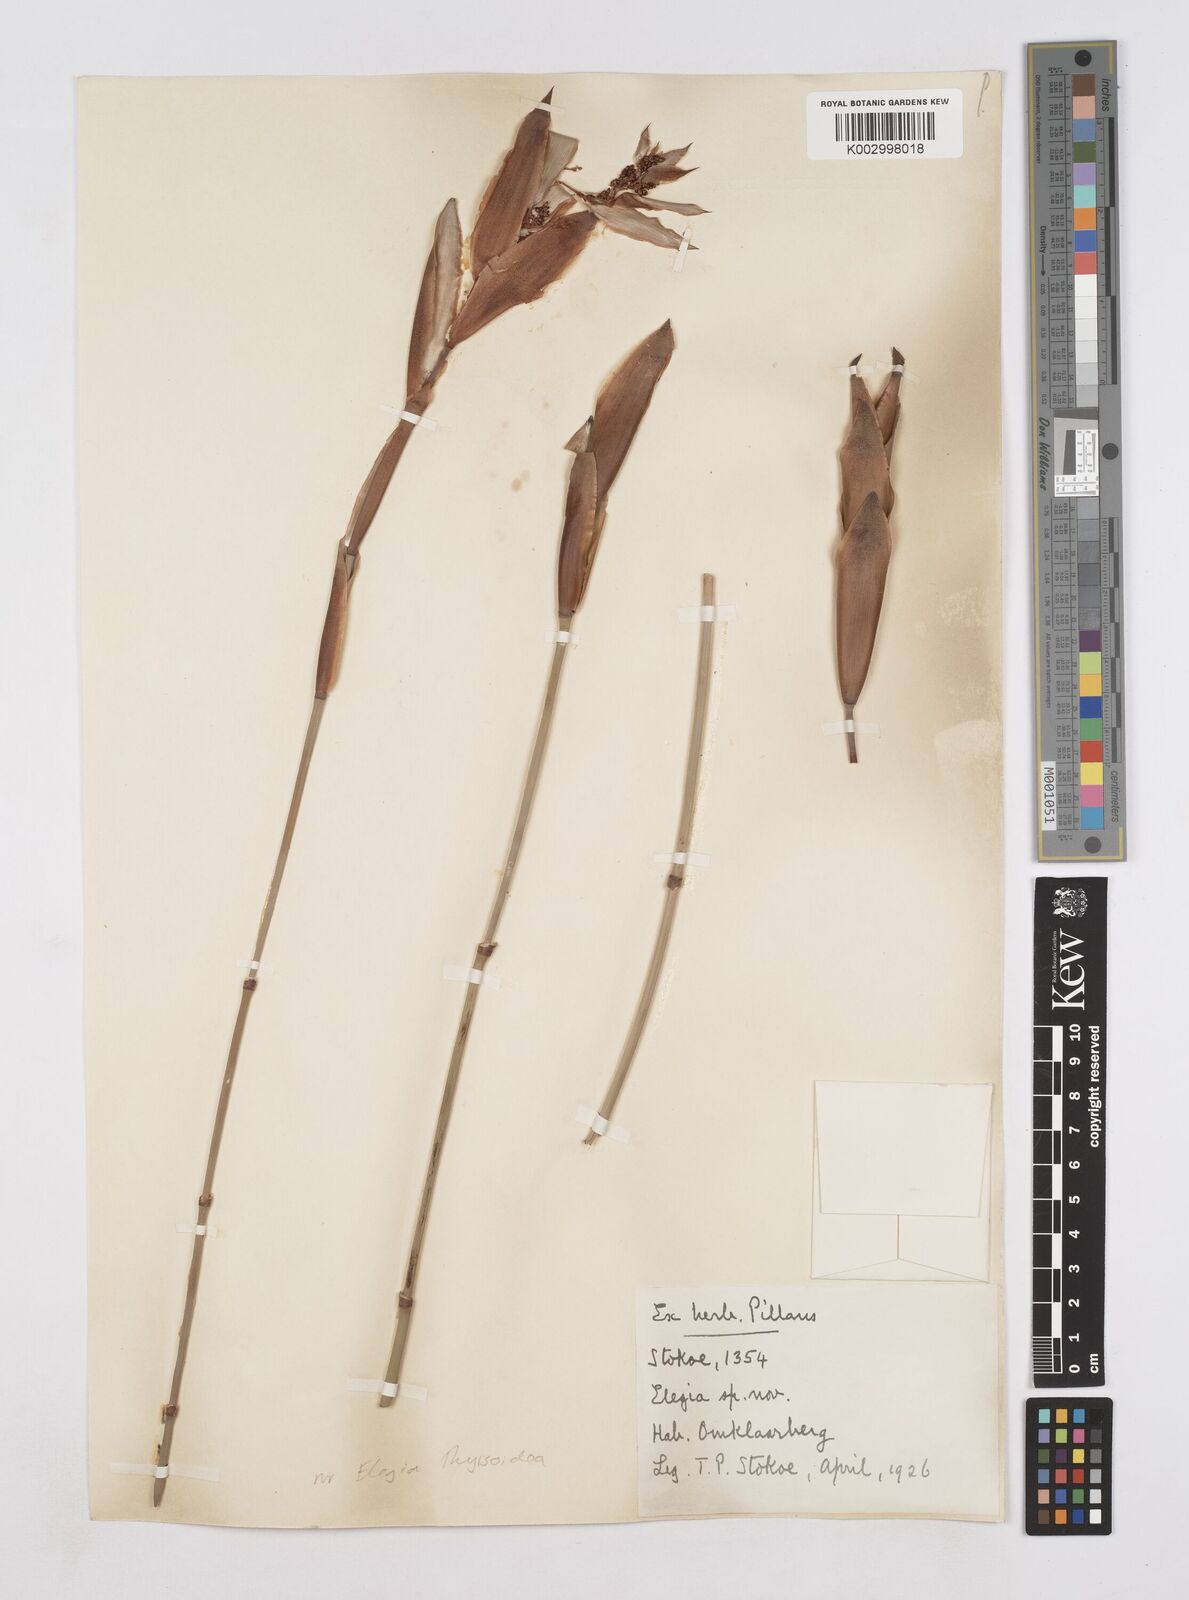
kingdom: Plantae
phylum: Tracheophyta
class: Liliopsida
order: Poales
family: Restionaceae
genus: Elegia
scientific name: Elegia thyrsoidea
